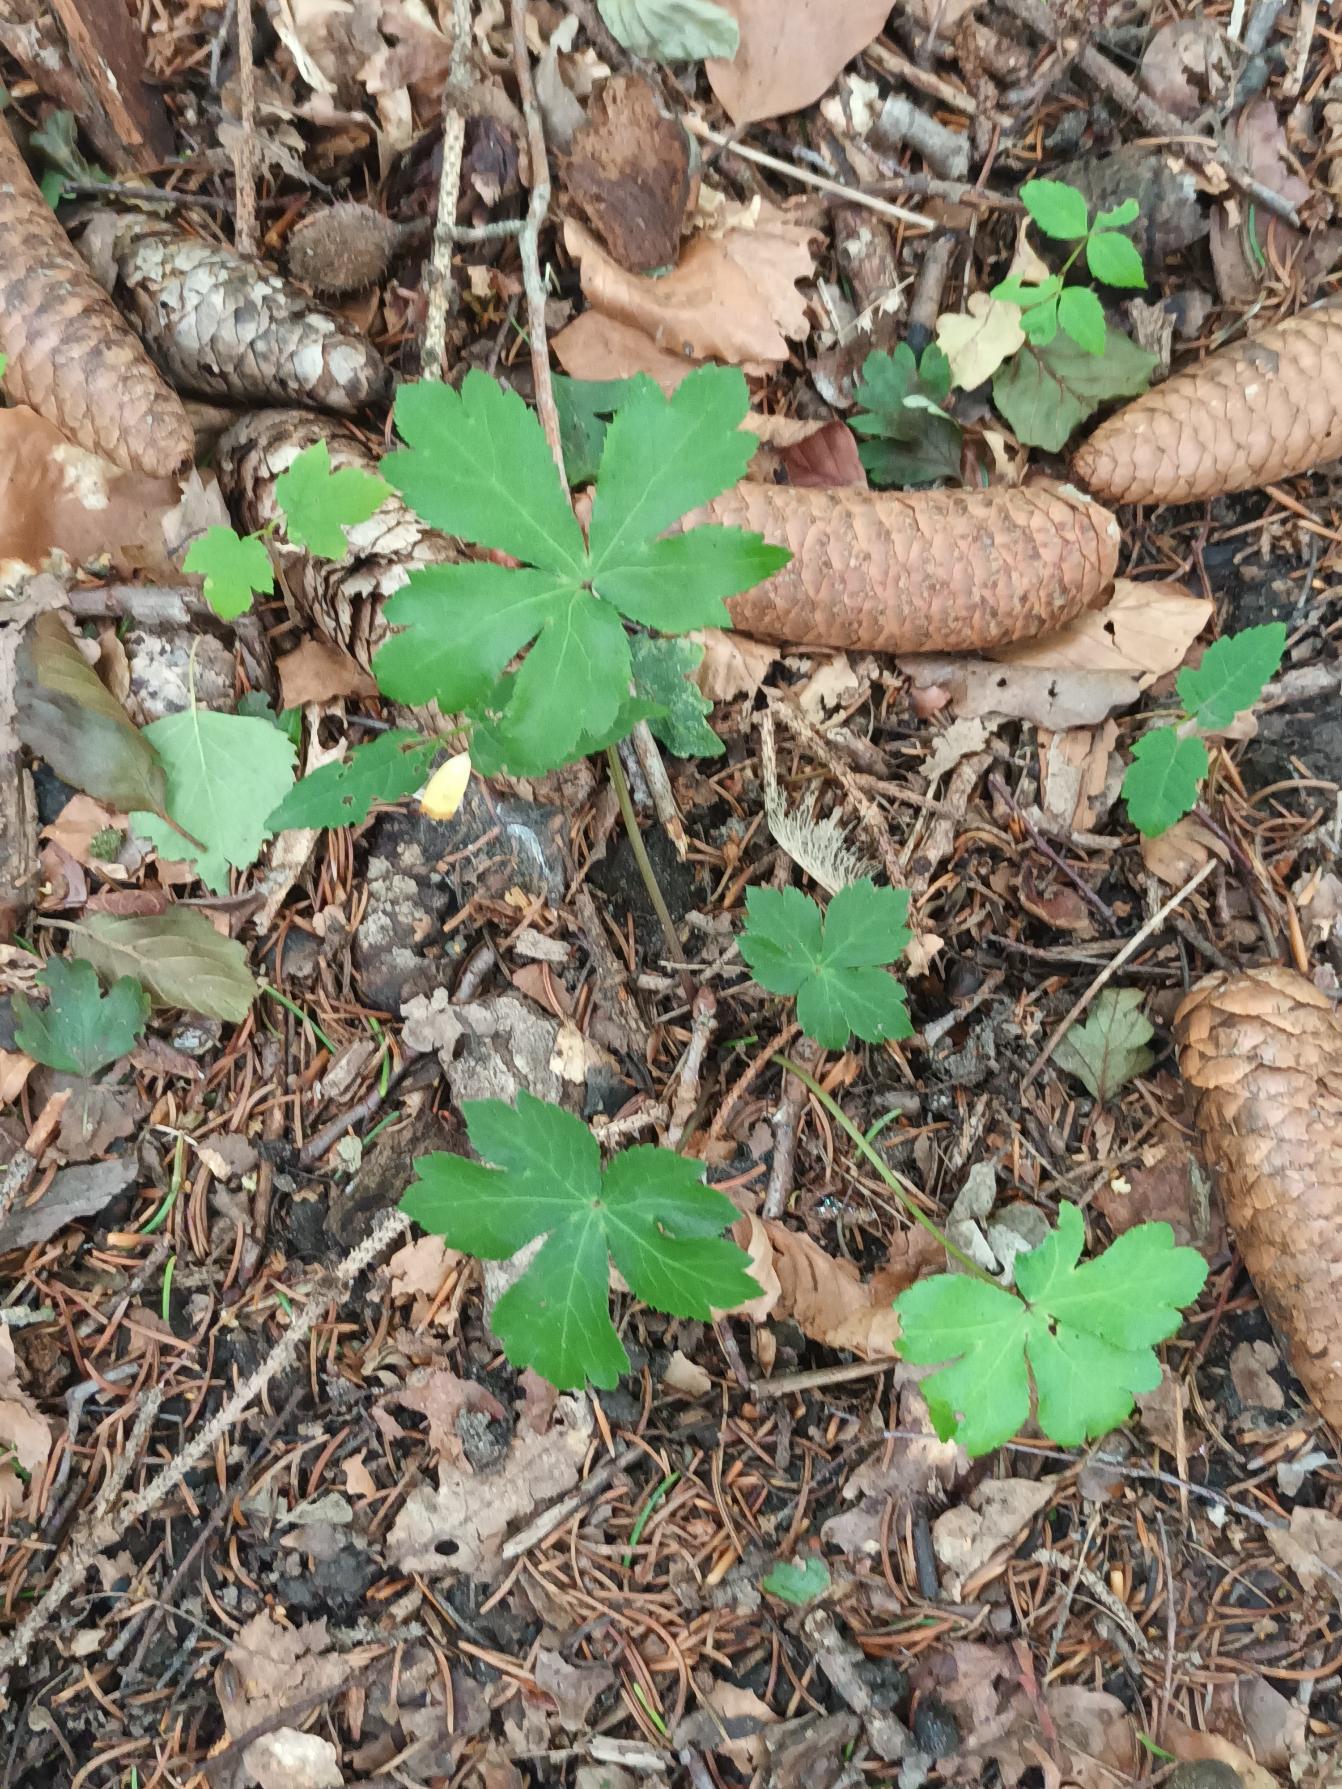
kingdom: Plantae
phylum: Tracheophyta
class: Magnoliopsida
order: Apiales
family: Apiaceae
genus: Sanicula
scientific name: Sanicula europaea
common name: Sanikel
